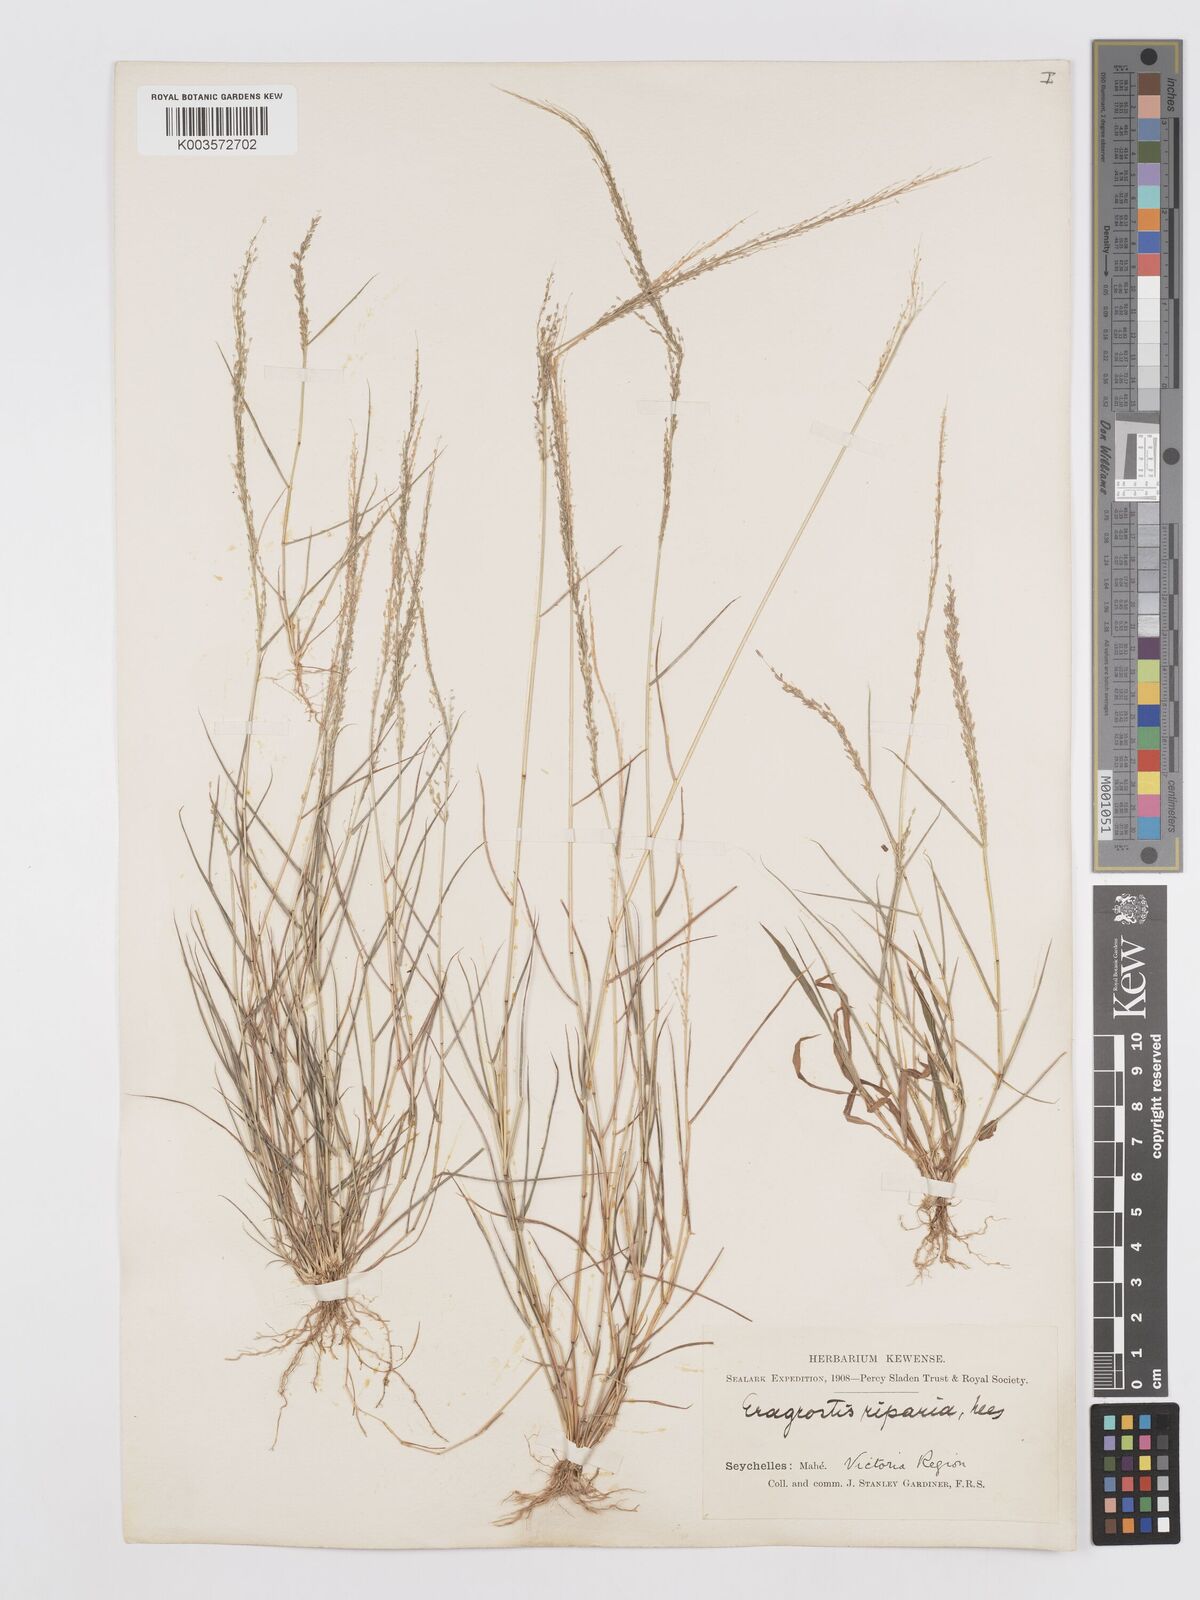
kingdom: Plantae
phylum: Tracheophyta
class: Liliopsida
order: Poales
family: Poaceae
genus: Eragrostis
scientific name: Eragrostis tenella
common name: Japanese lovegrass
